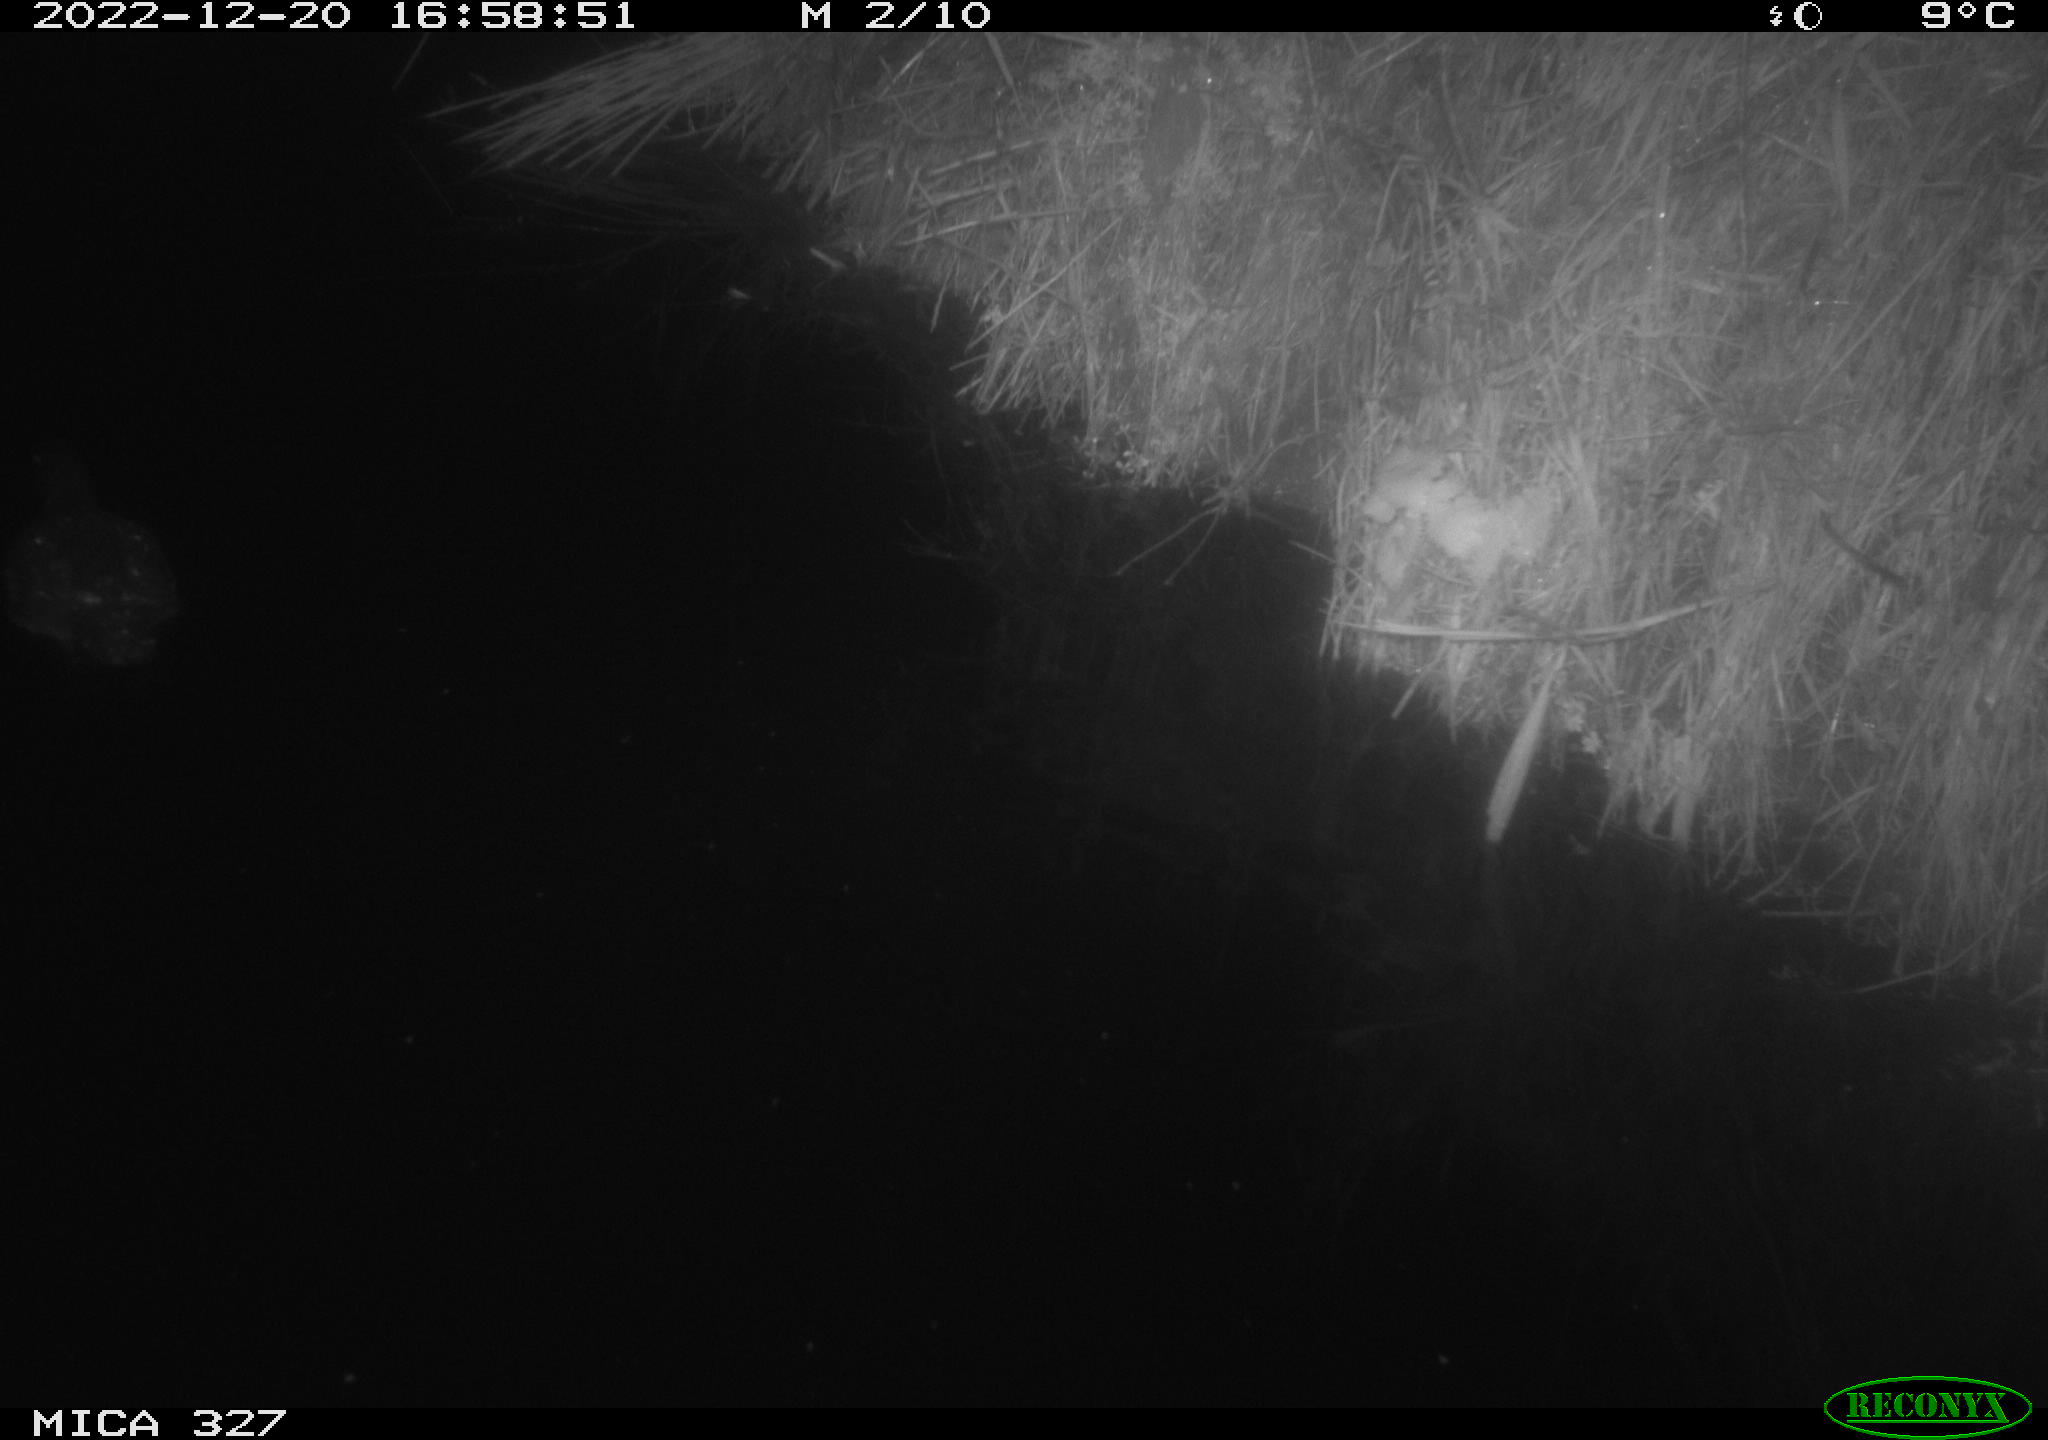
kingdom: Animalia
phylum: Chordata
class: Aves
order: Anseriformes
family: Anatidae
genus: Anas
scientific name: Anas
